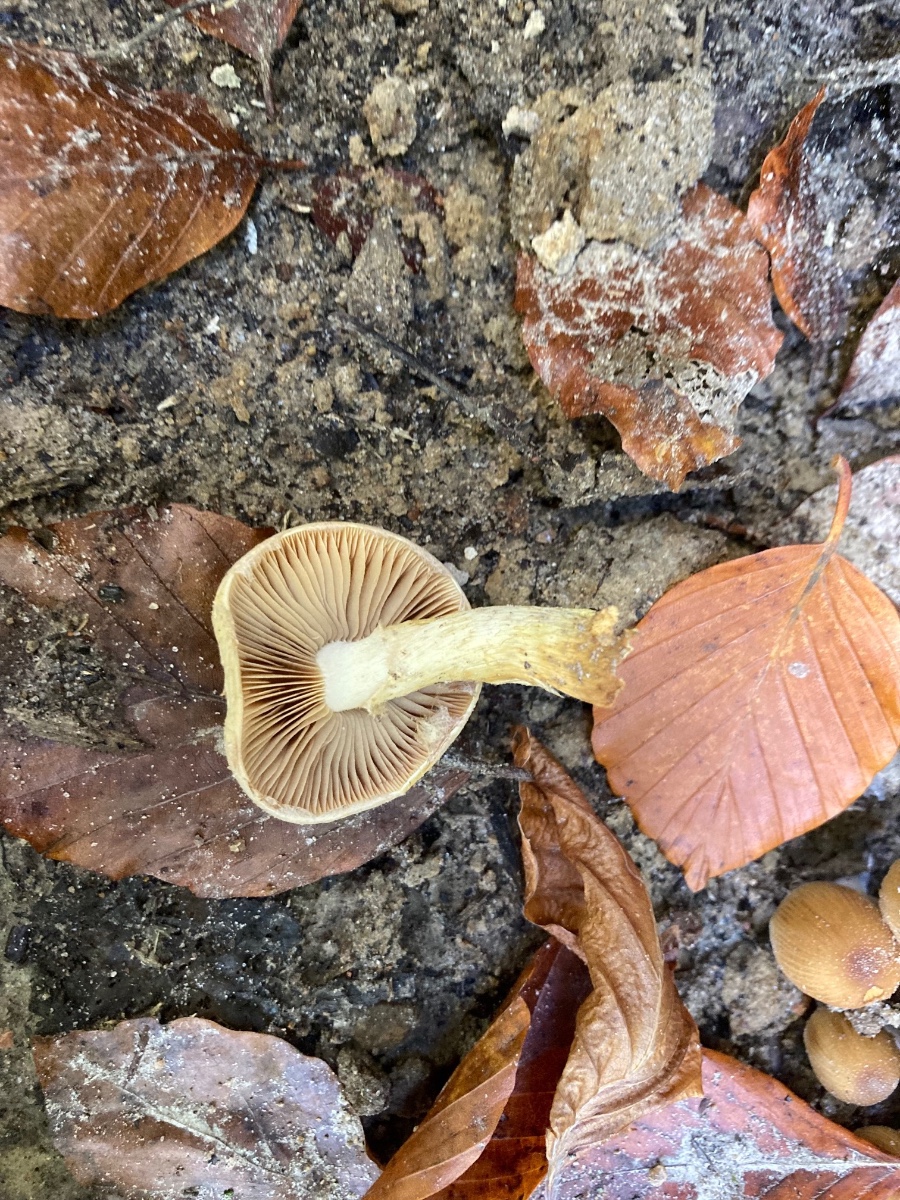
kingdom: Fungi
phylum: Basidiomycota
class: Agaricomycetes
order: Agaricales
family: Hymenogastraceae
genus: Flammula
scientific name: Flammula alnicola
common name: elle-skælhat
